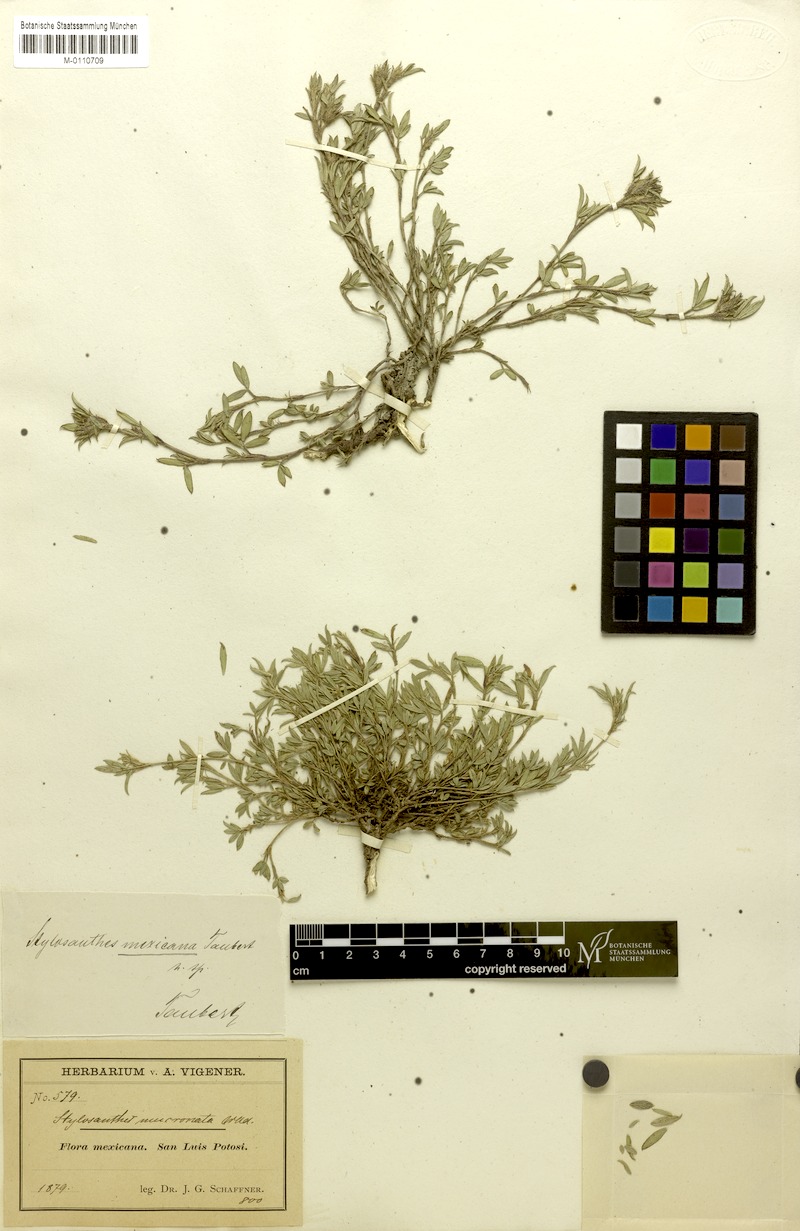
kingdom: Plantae
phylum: Tracheophyta
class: Magnoliopsida
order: Fabales
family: Fabaceae
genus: Stylosanthes
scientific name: Stylosanthes mexicana
